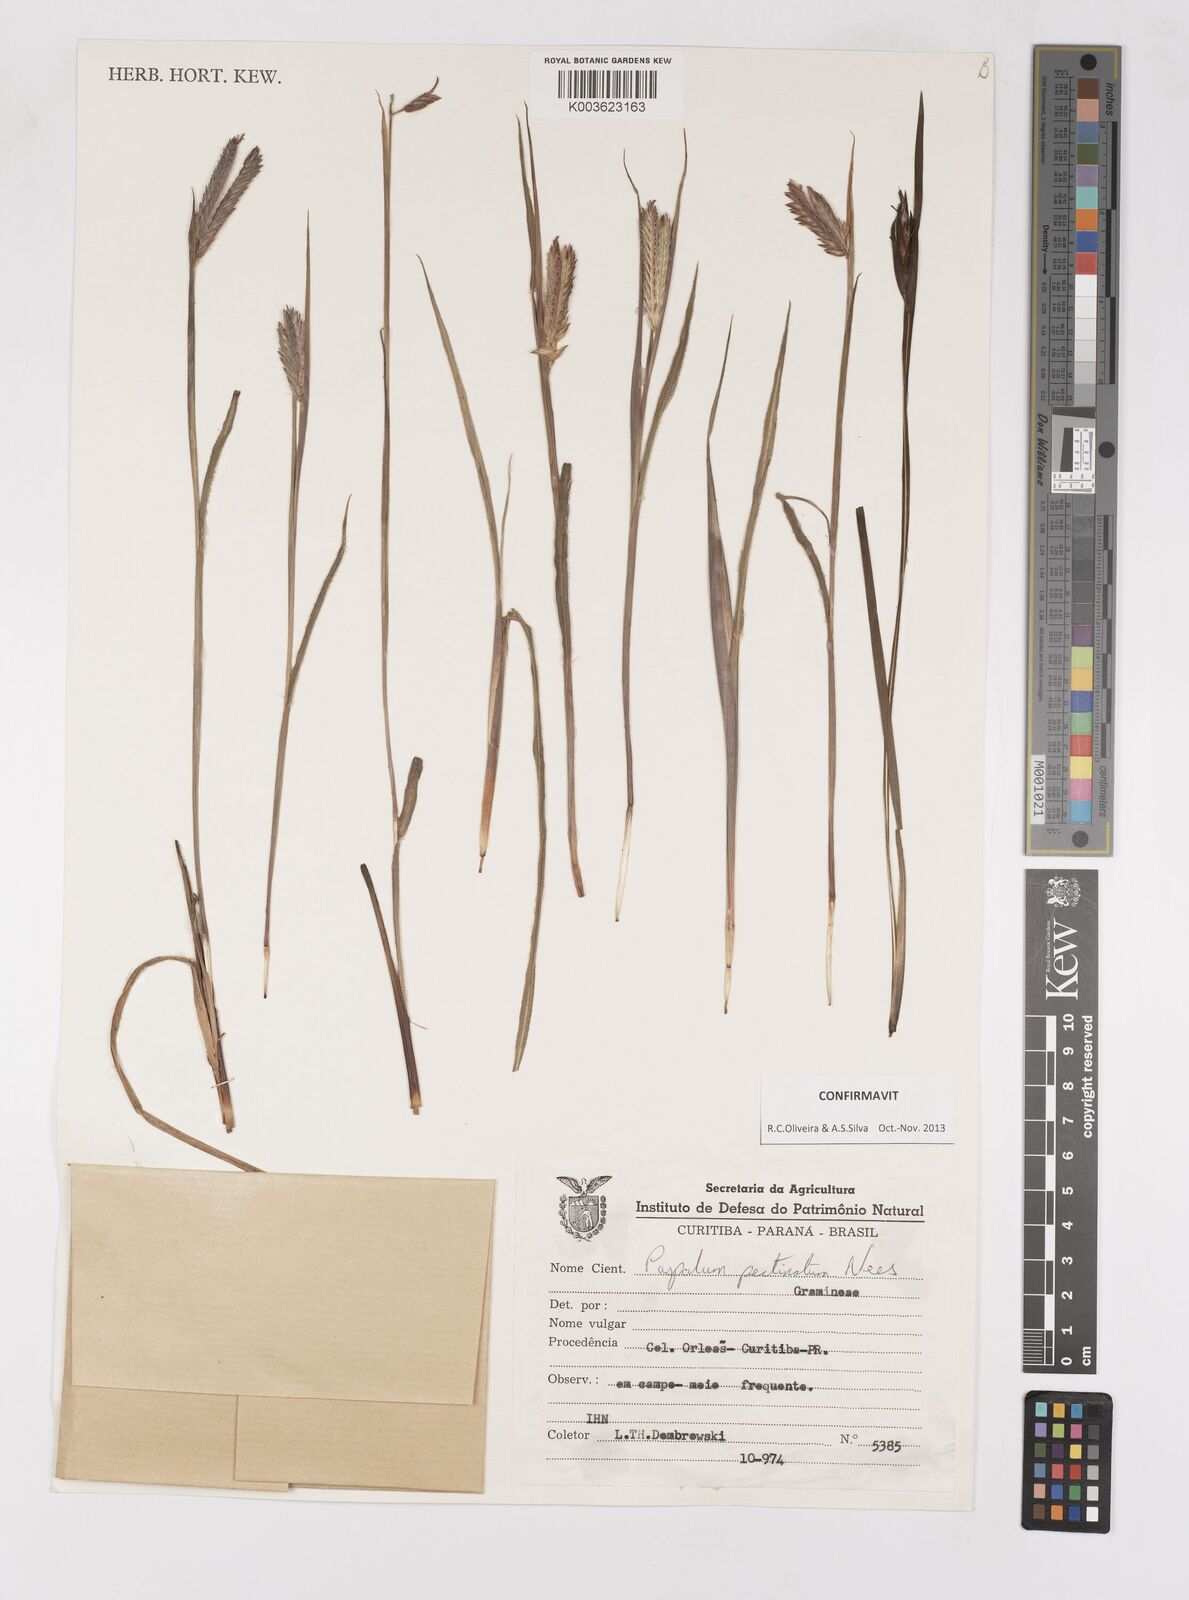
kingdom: Plantae
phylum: Tracheophyta
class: Liliopsida
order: Poales
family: Poaceae
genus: Paspalum
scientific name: Paspalum pectinatum
